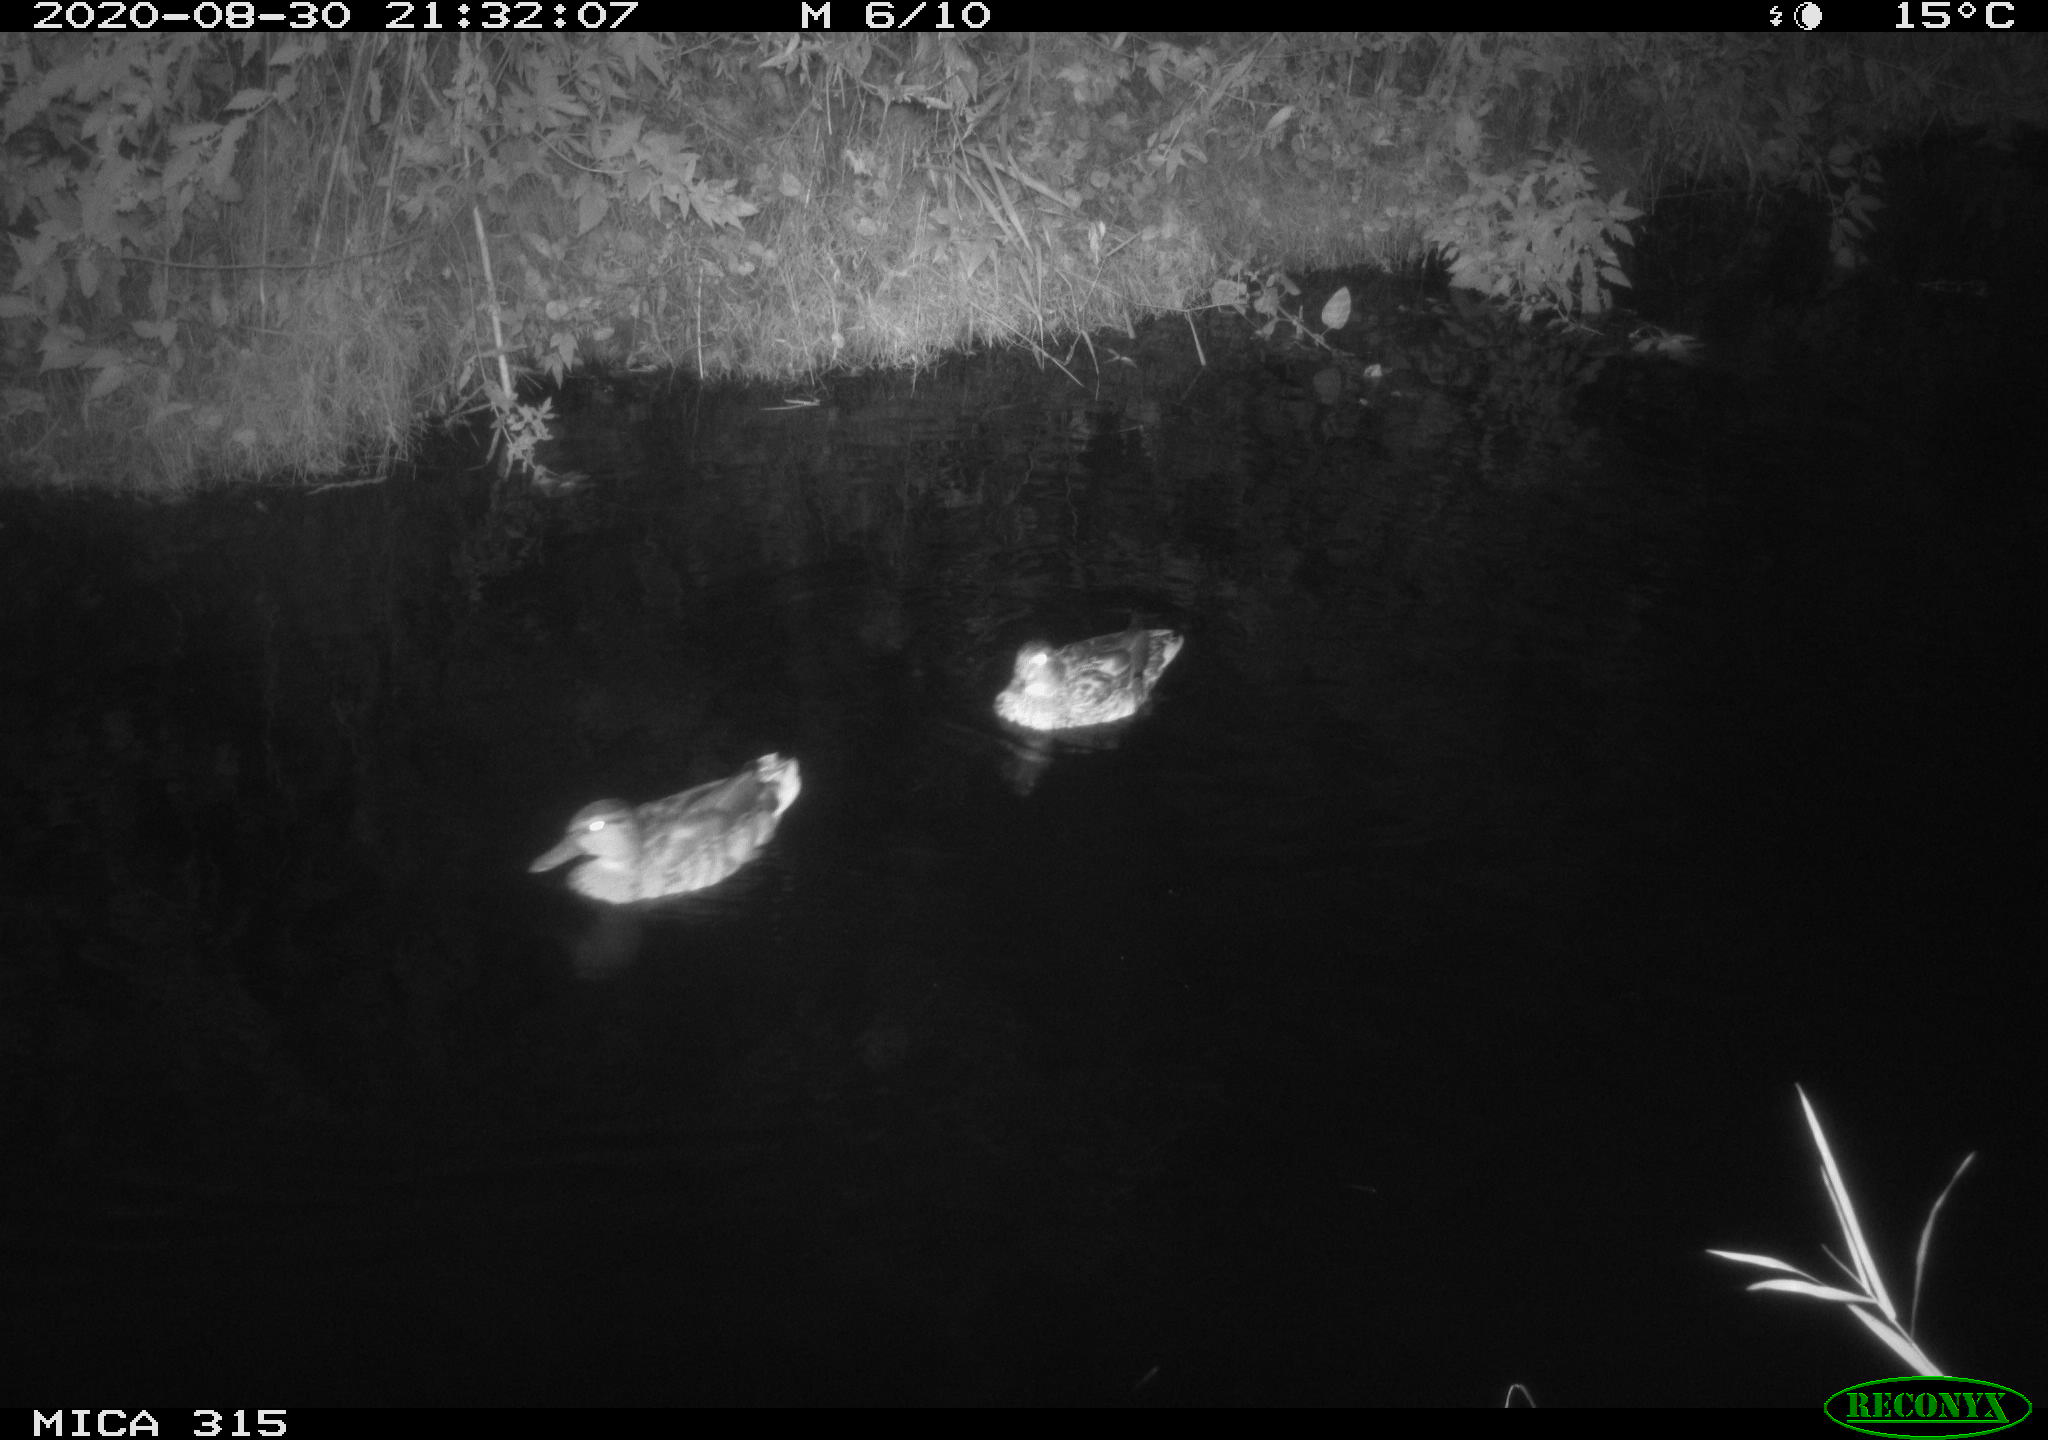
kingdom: Animalia
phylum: Chordata
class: Aves
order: Anseriformes
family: Anatidae
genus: Anas
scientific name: Anas platyrhynchos
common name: Mallard
